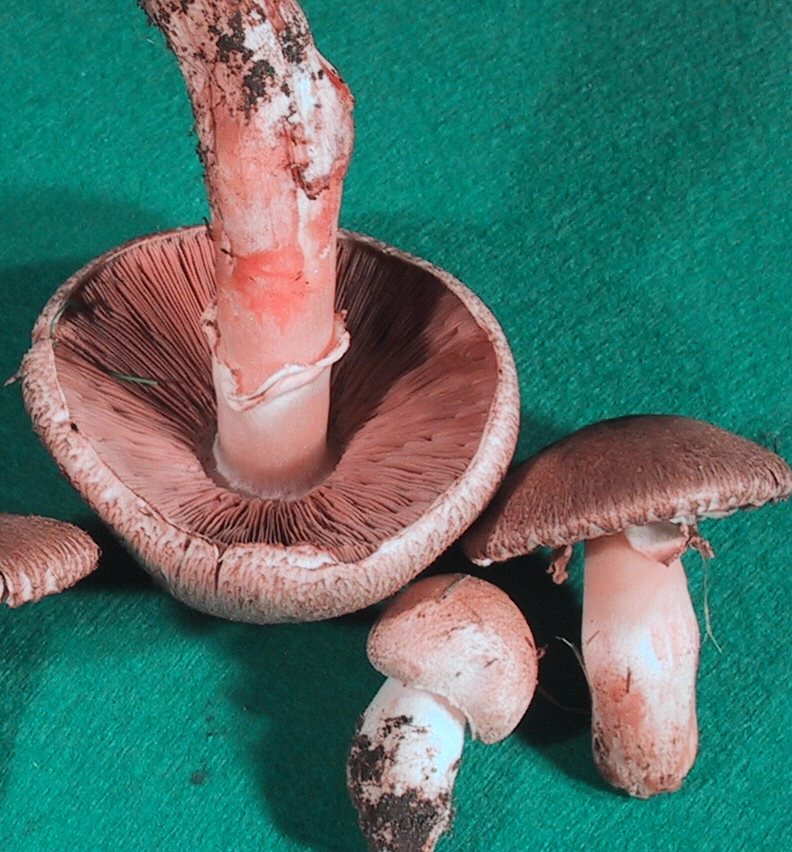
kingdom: Fungi
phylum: Basidiomycota
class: Agaricomycetes
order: Agaricales
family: Agaricaceae
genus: Agaricus
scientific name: Agaricus langei
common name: stor blod-champignon
